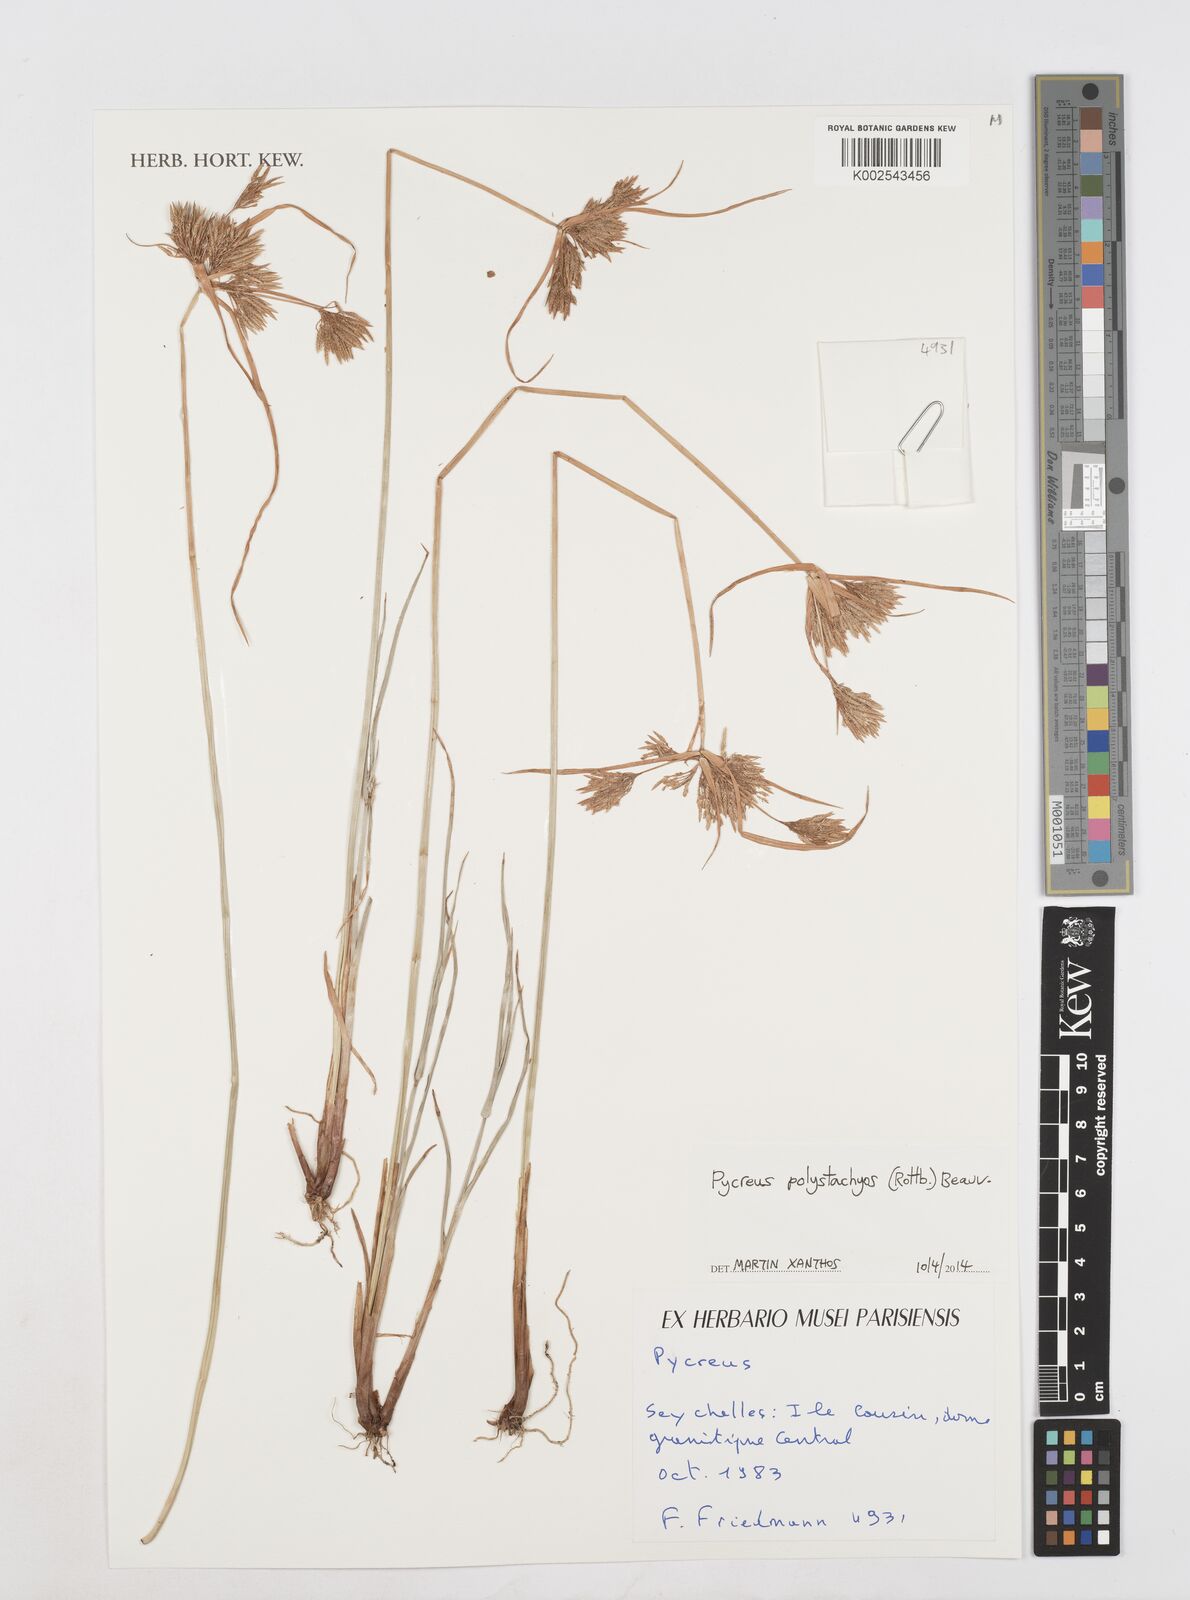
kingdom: Plantae
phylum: Tracheophyta
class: Liliopsida
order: Poales
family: Cyperaceae
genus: Cyperus
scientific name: Cyperus polystachyos
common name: Bunchy flat sedge
